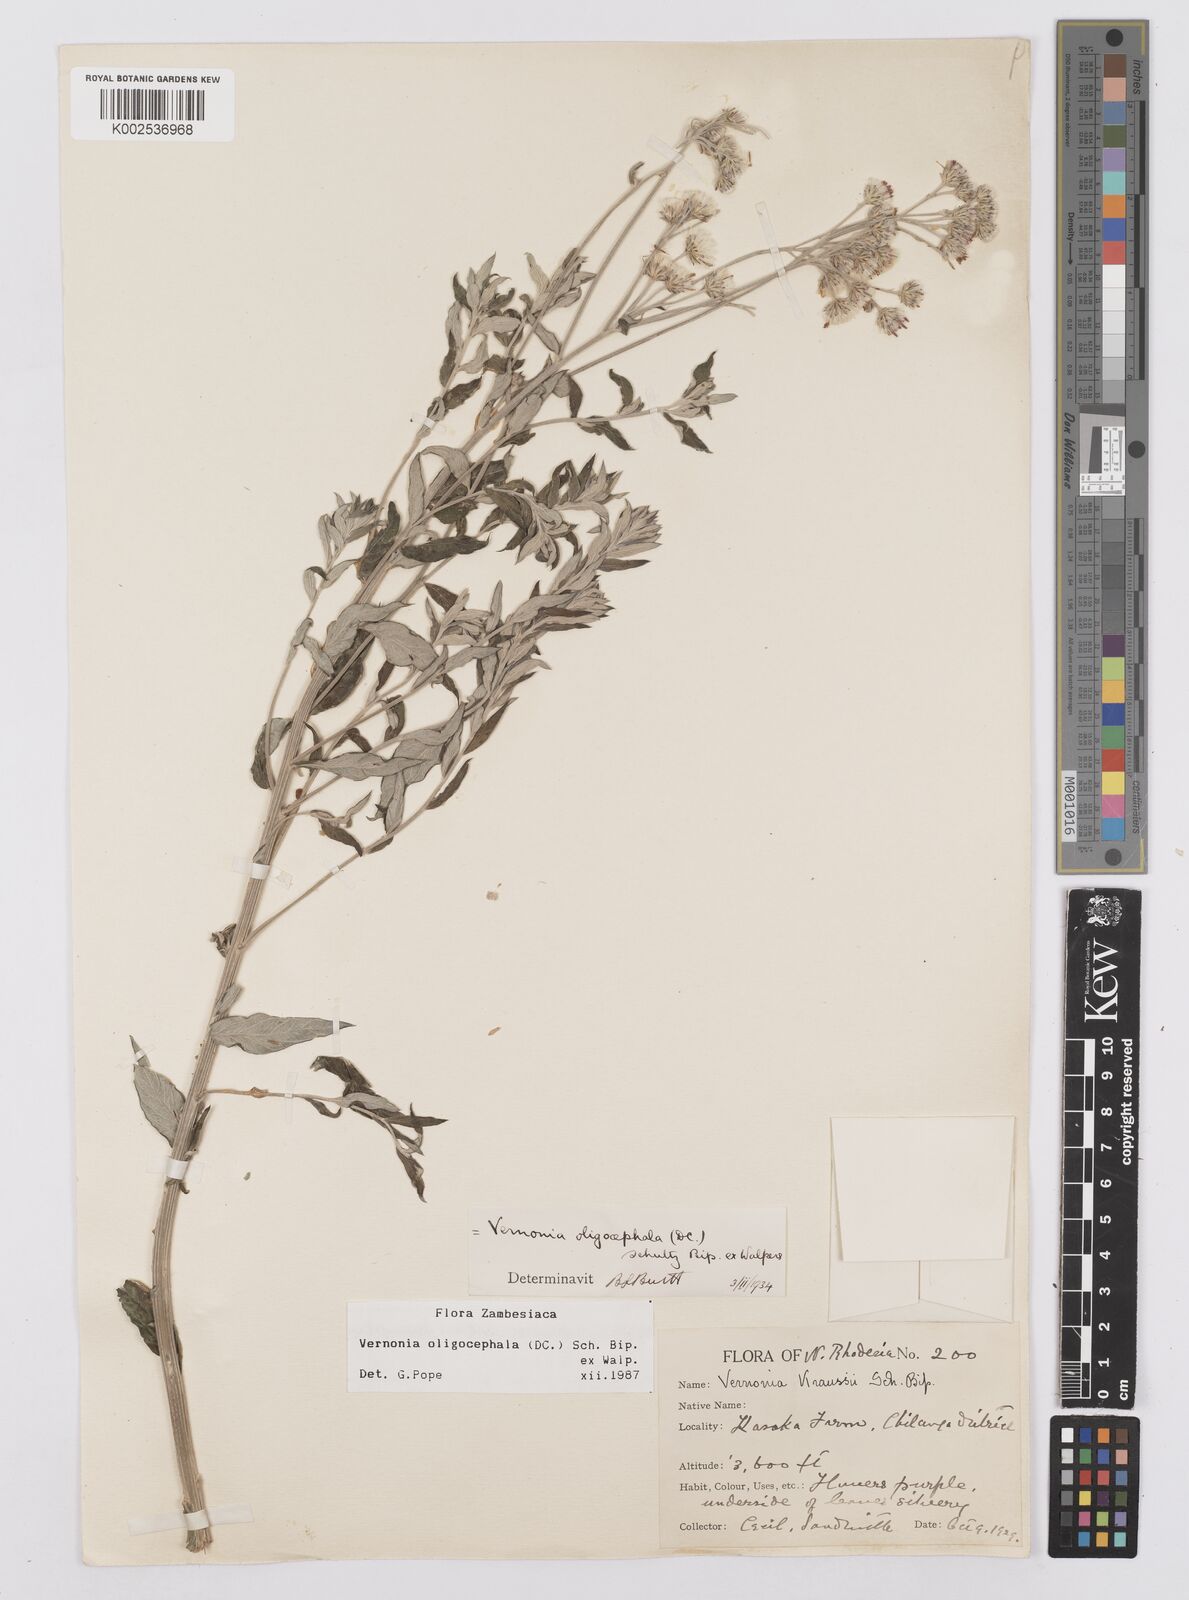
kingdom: Plantae
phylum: Tracheophyta
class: Magnoliopsida
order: Asterales
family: Asteraceae
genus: Hilliardiella
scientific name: Hilliardiella oligocephala
